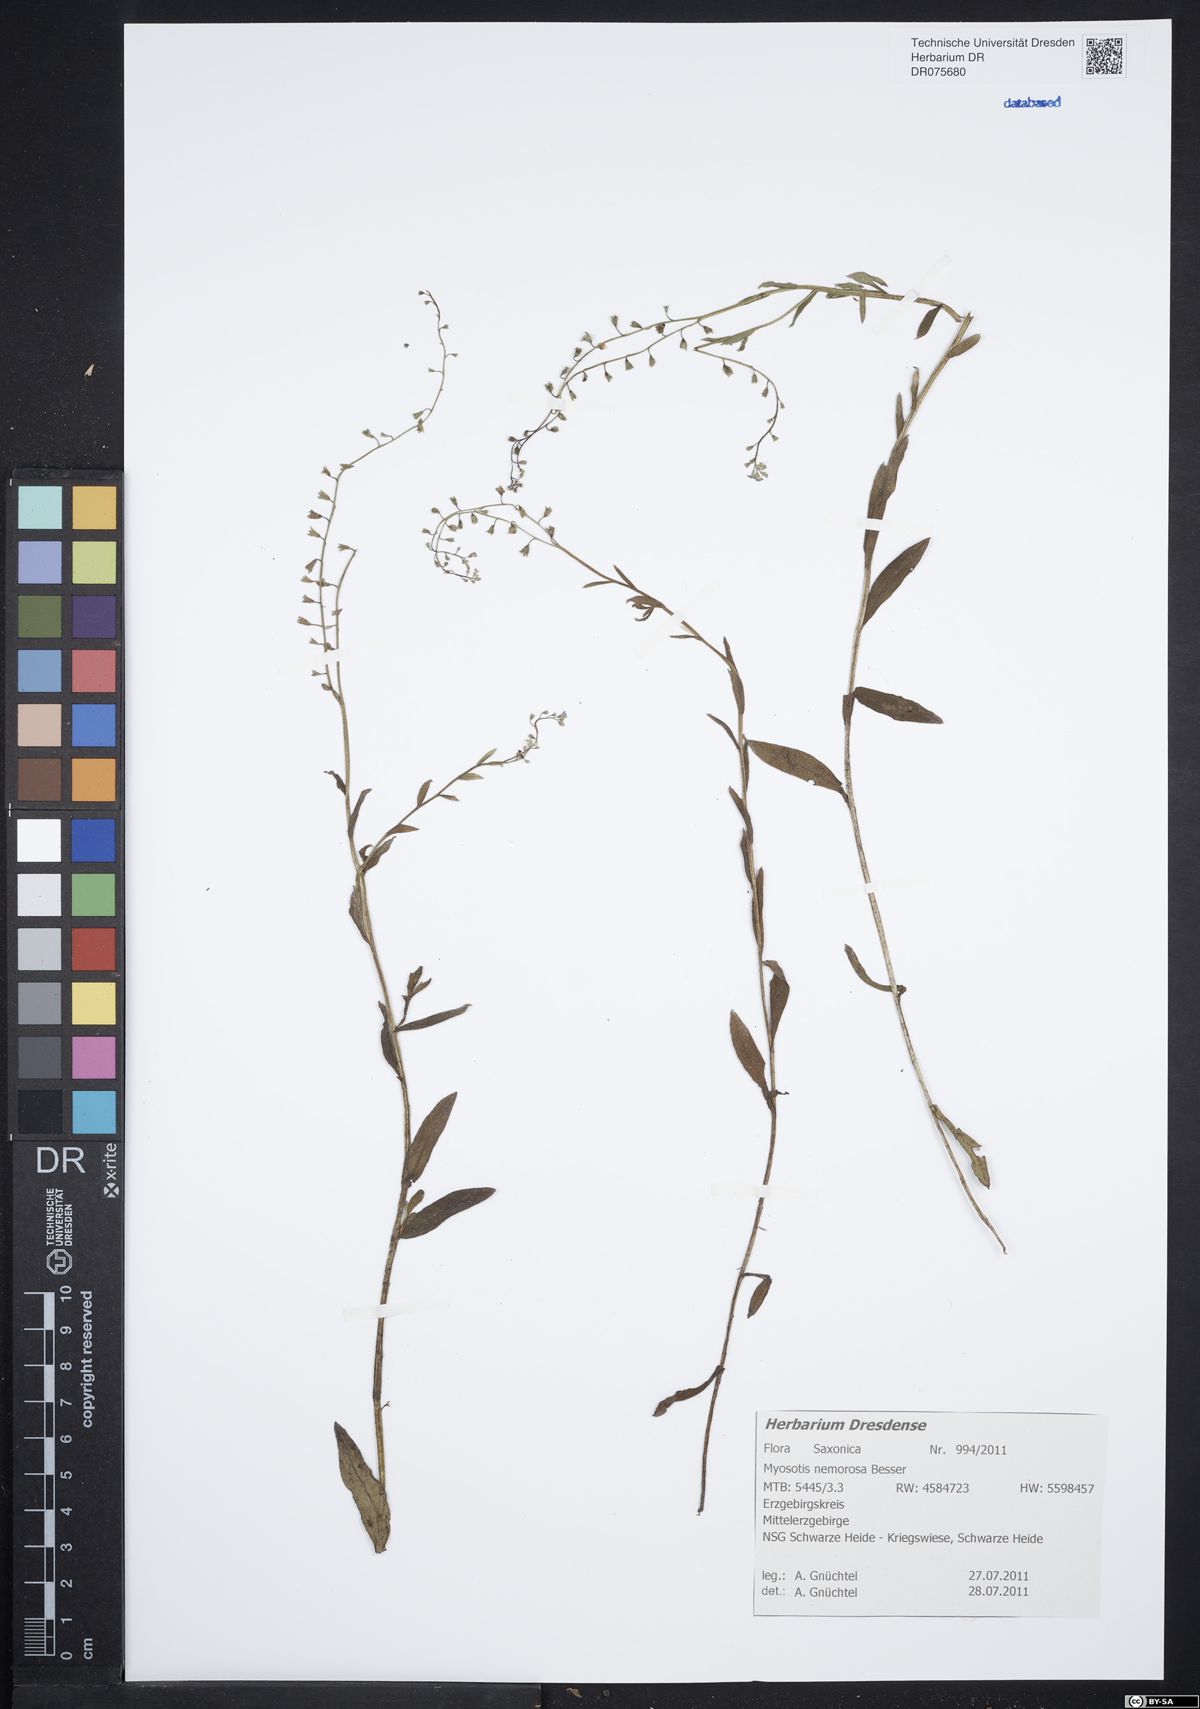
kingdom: Plantae
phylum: Tracheophyta
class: Magnoliopsida
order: Boraginales
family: Boraginaceae
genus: Myosotis
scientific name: Myosotis nemorosa
